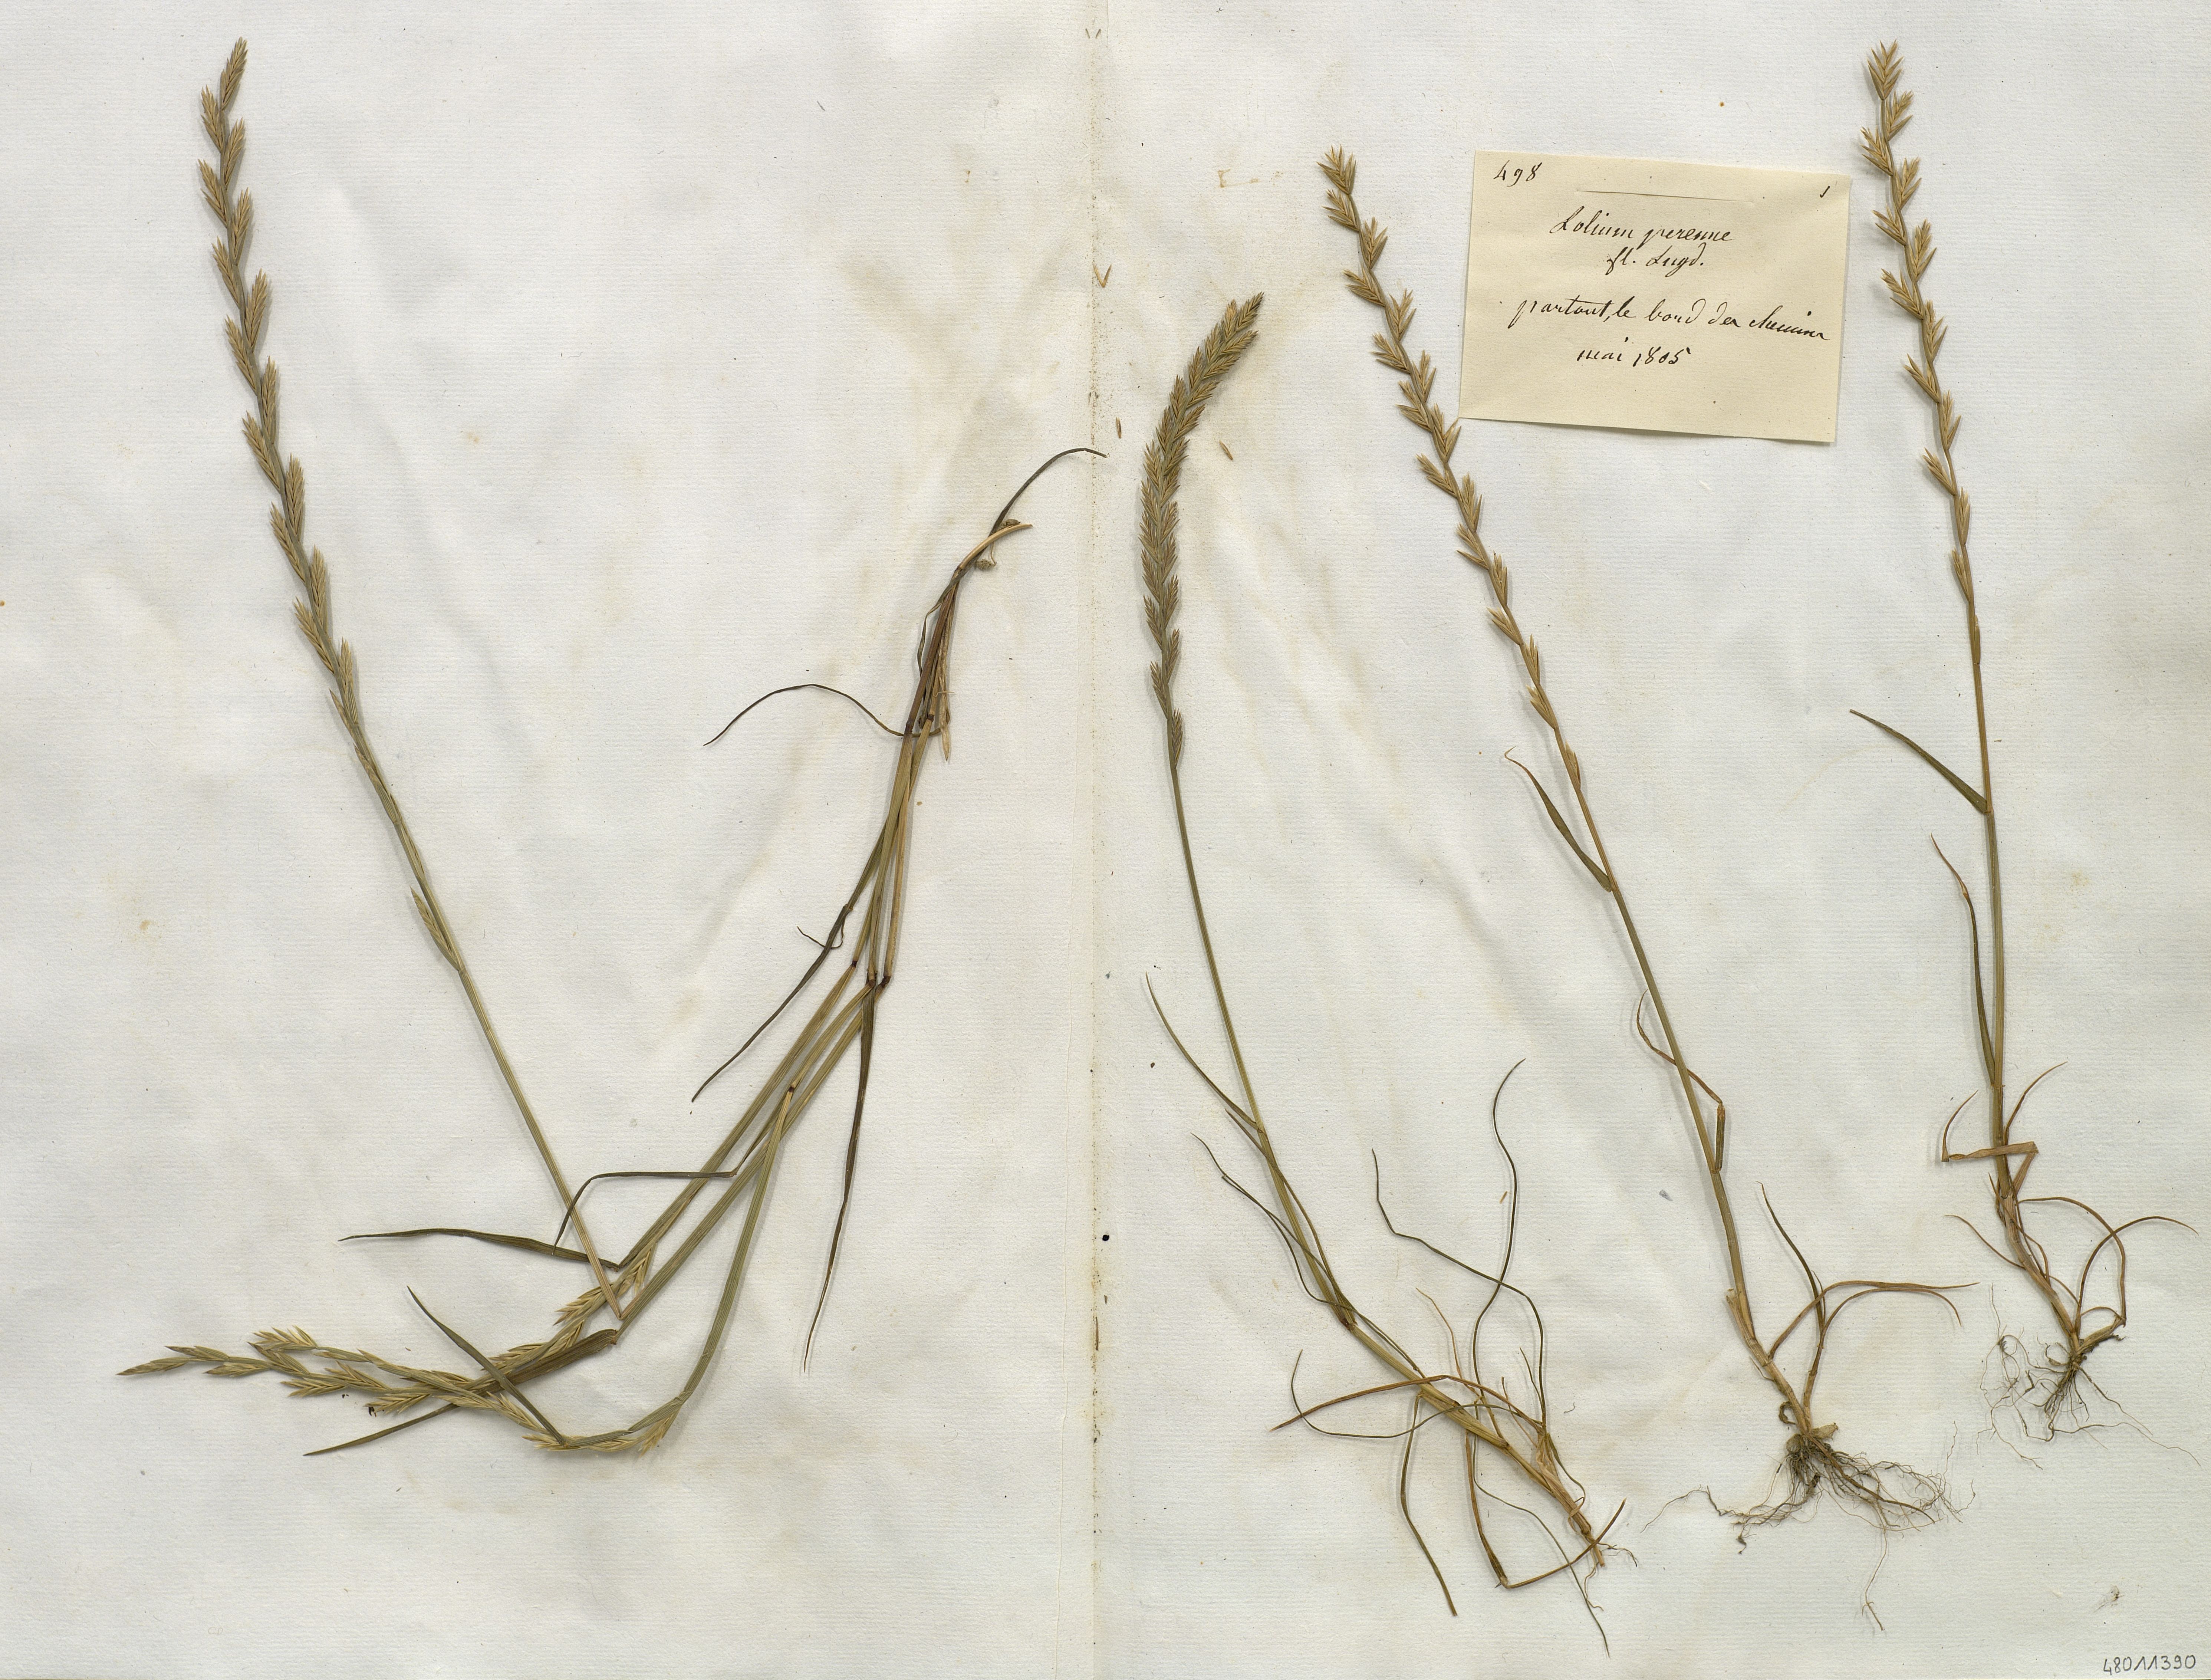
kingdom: Plantae
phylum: Tracheophyta
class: Liliopsida
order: Poales
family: Poaceae
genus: Lolium
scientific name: Lolium perenne
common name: Perennial ryegrass
